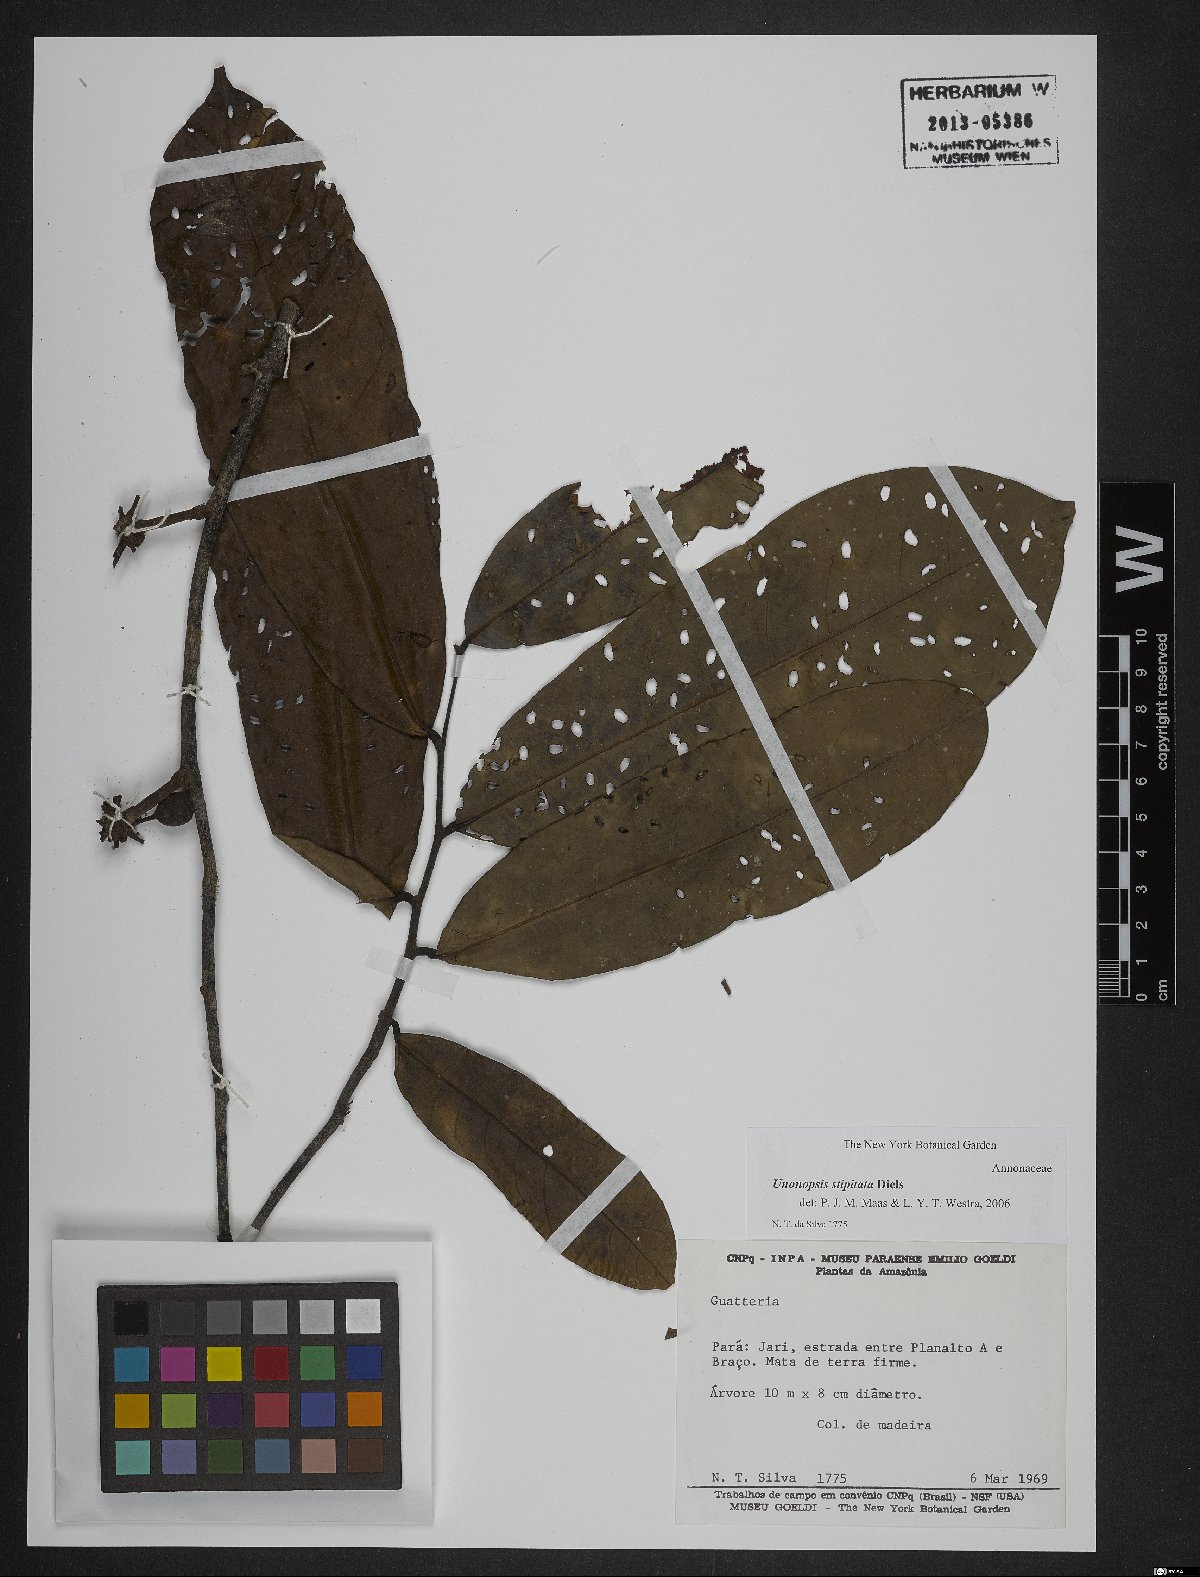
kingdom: Plantae
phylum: Tracheophyta
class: Magnoliopsida
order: Magnoliales
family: Annonaceae
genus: Unonopsis
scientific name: Unonopsis stipitata
